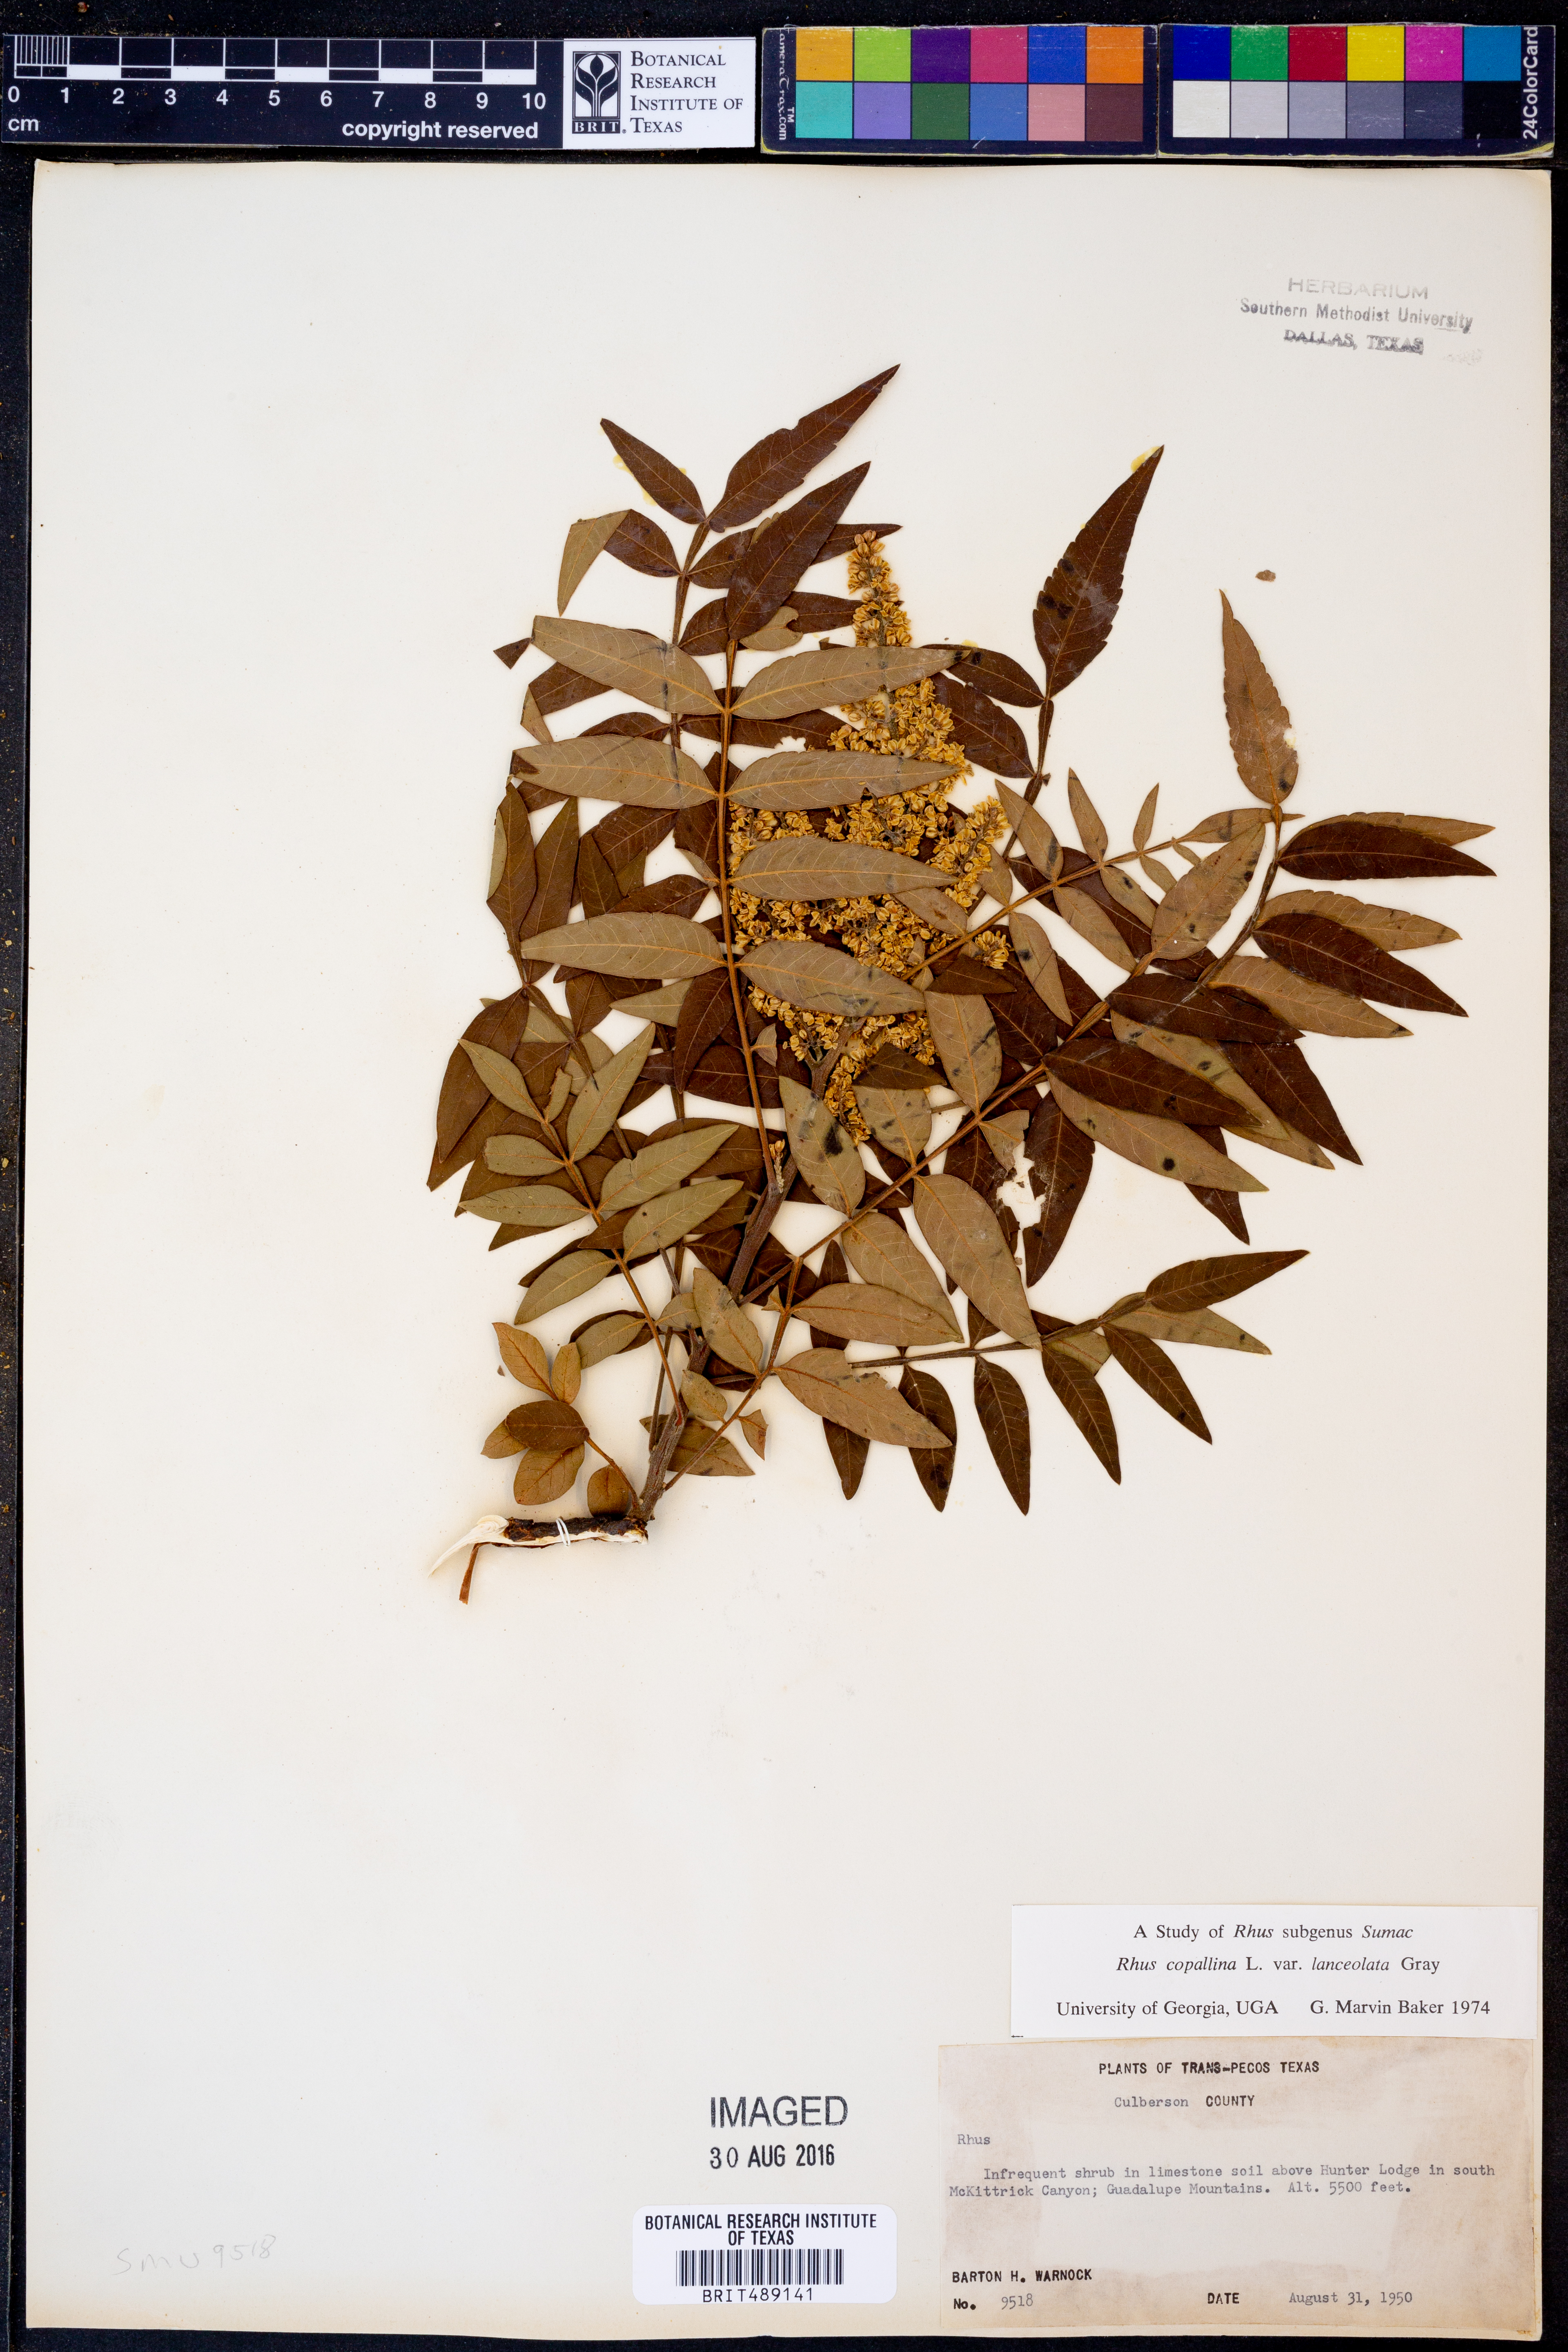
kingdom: Plantae
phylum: Tracheophyta
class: Magnoliopsida
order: Sapindales
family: Anacardiaceae
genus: Rhus
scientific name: Rhus lanceolata
